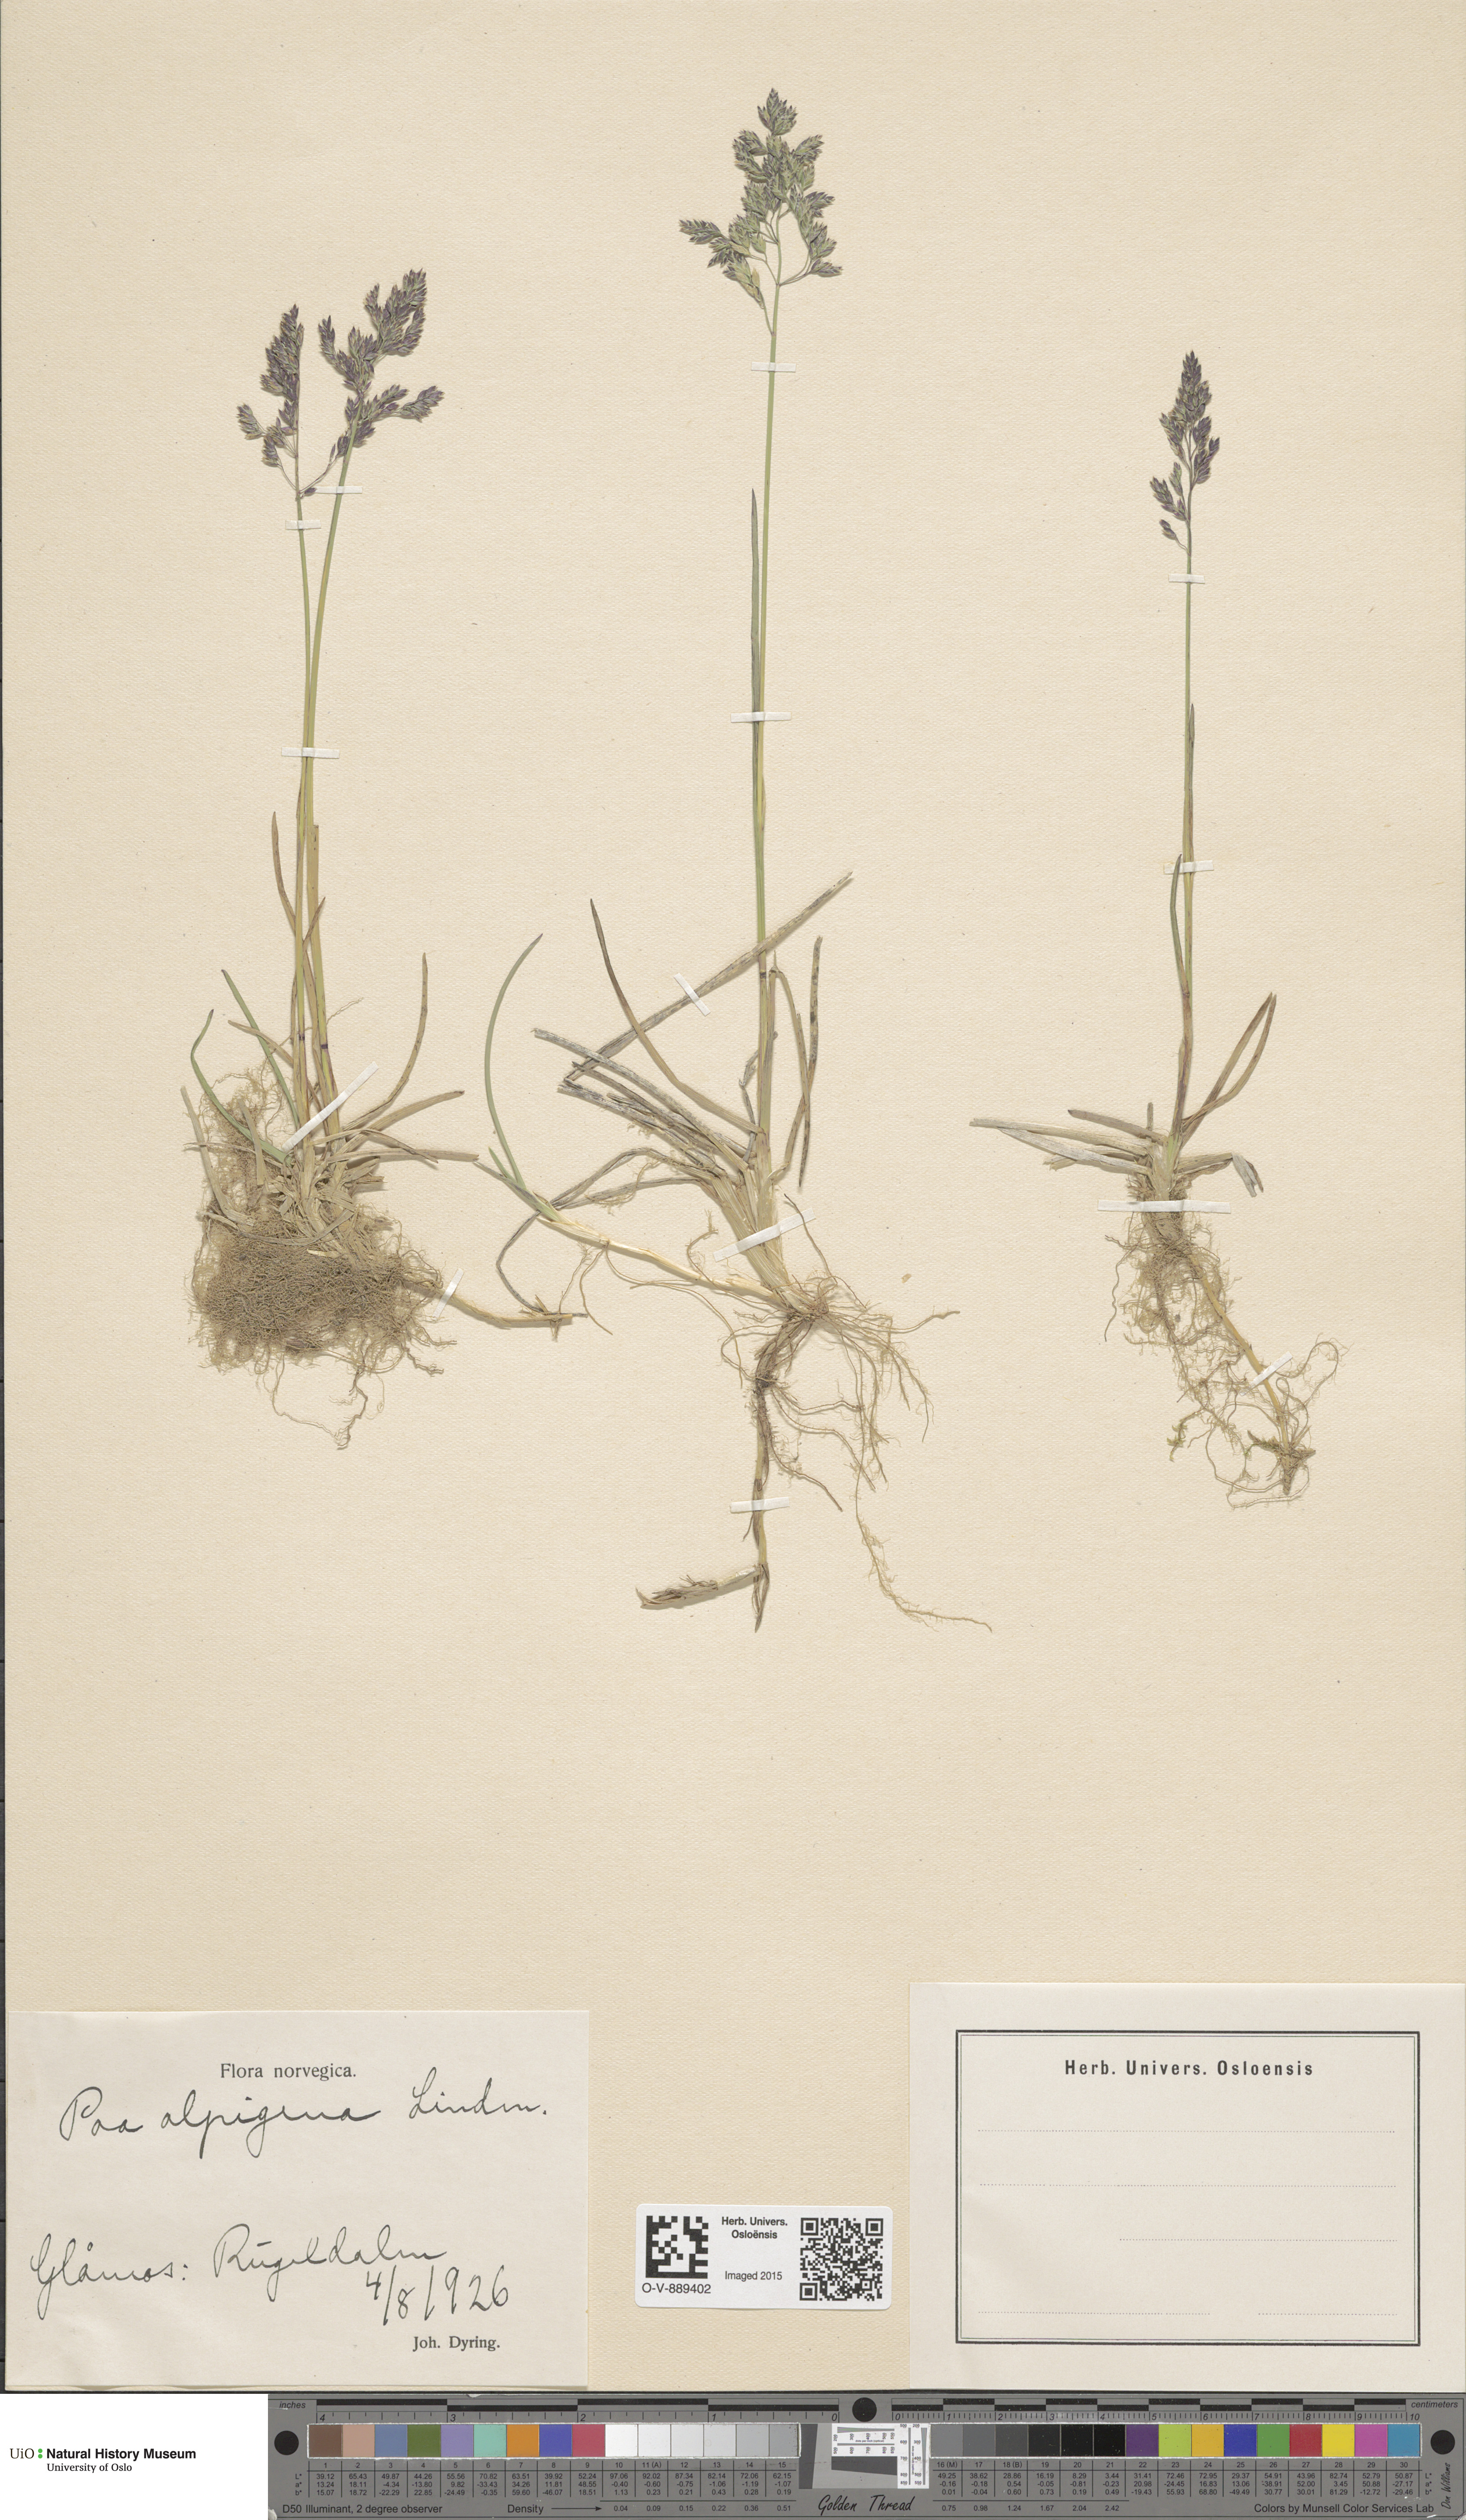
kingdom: Plantae
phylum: Tracheophyta
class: Liliopsida
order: Poales
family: Poaceae
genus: Poa
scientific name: Poa alpigena
